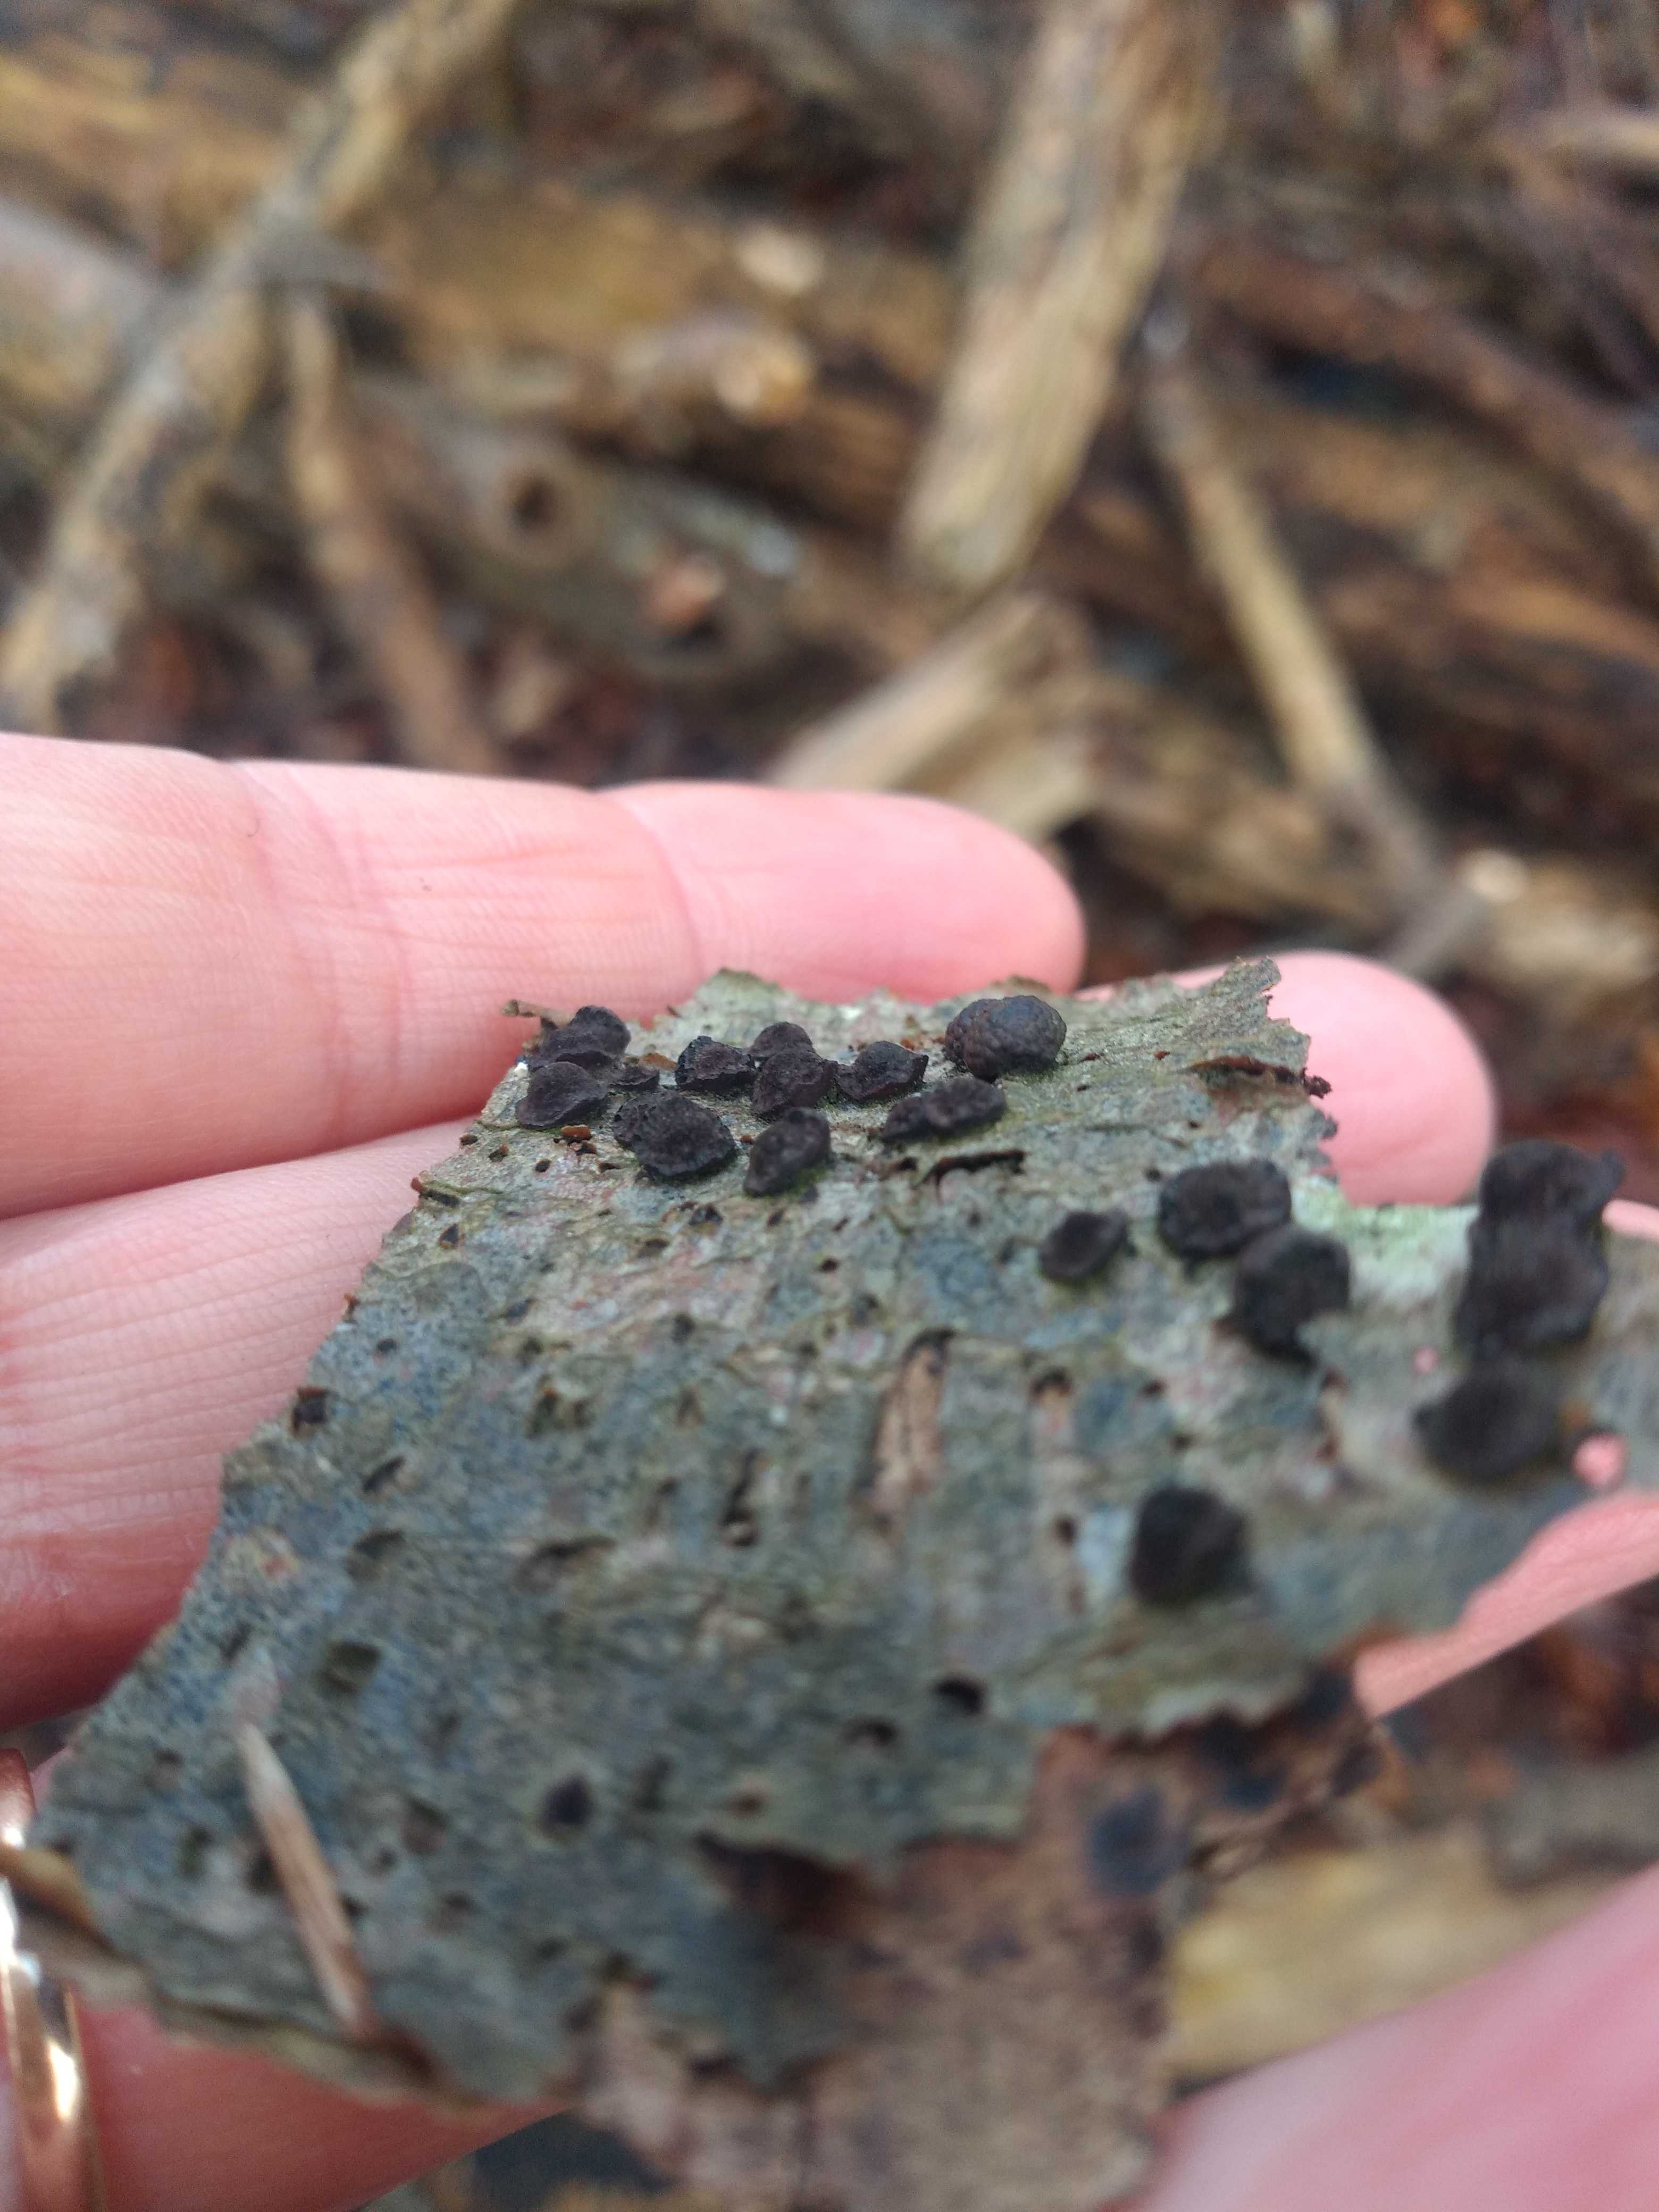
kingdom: Fungi
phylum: Ascomycota
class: Sordariomycetes
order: Xylariales
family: Hypoxylaceae
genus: Hypoxylon
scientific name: Hypoxylon fragiforme
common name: kuljordbær
